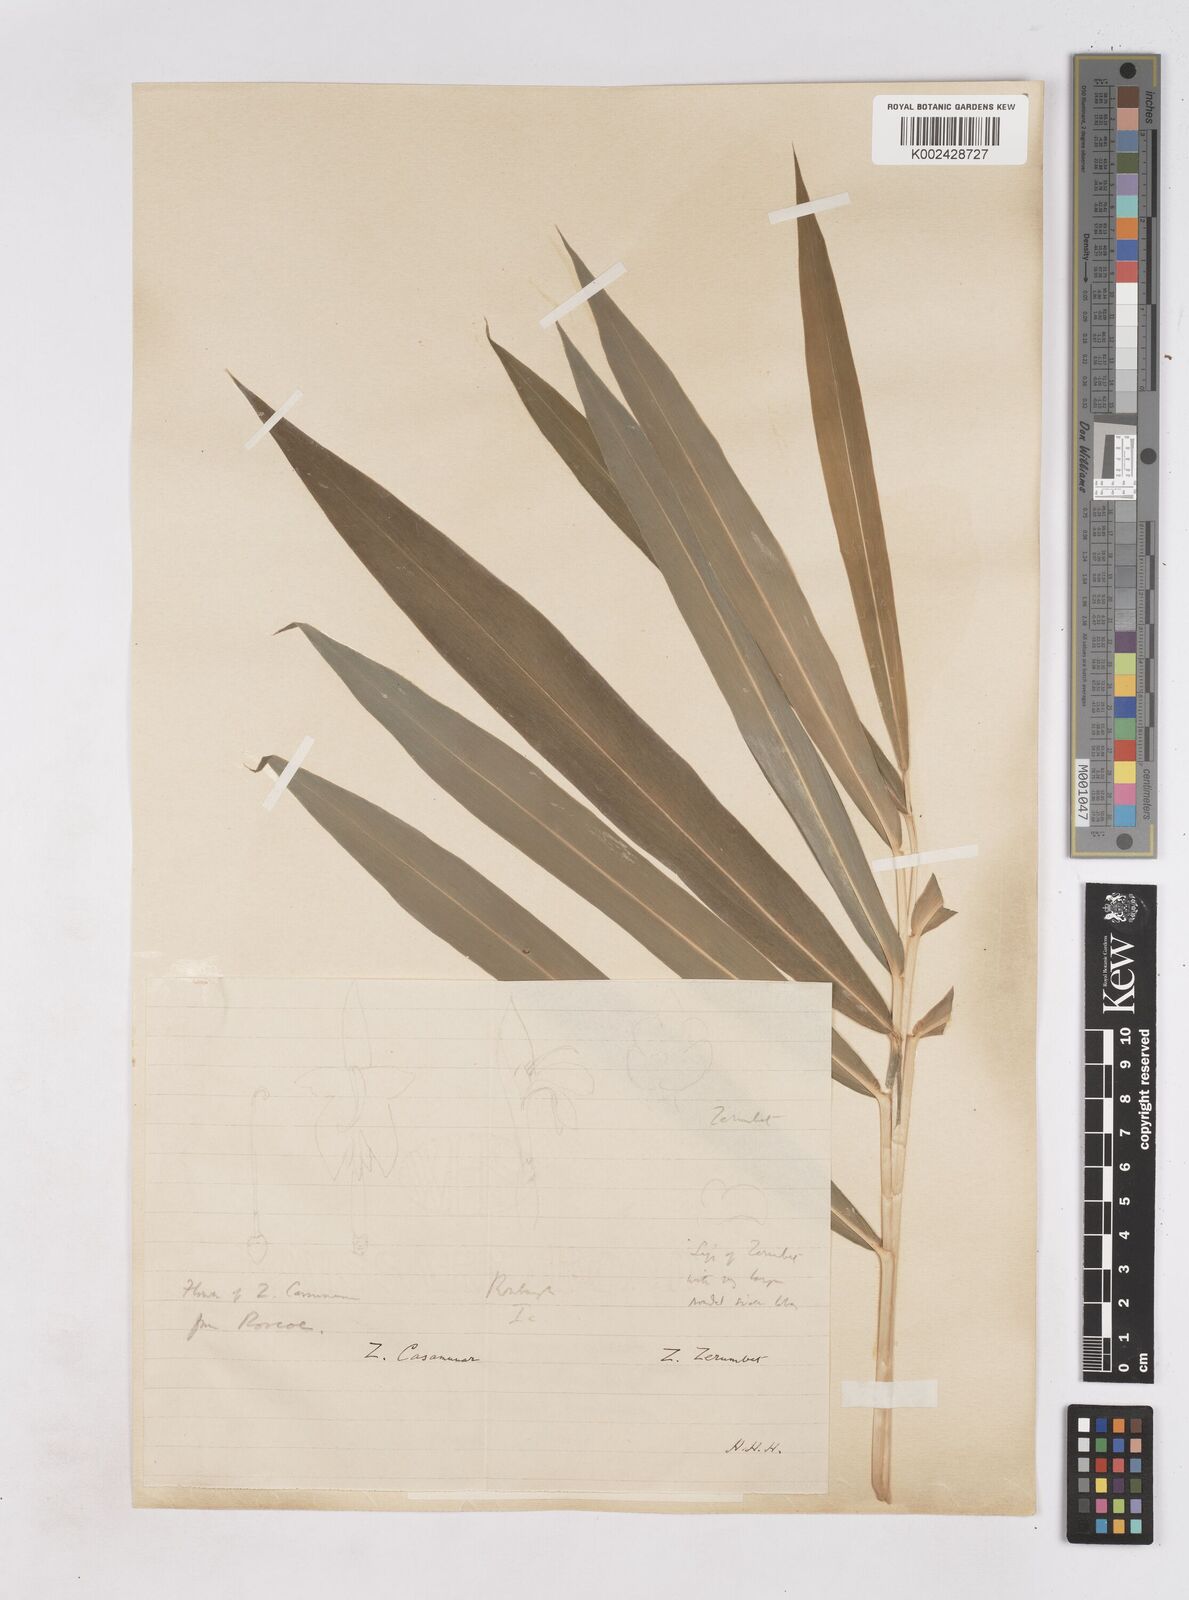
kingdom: Plantae
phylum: Tracheophyta
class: Liliopsida
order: Zingiberales
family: Zingiberaceae
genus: Zingiber
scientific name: Zingiber montanum
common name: Bengal ginger
